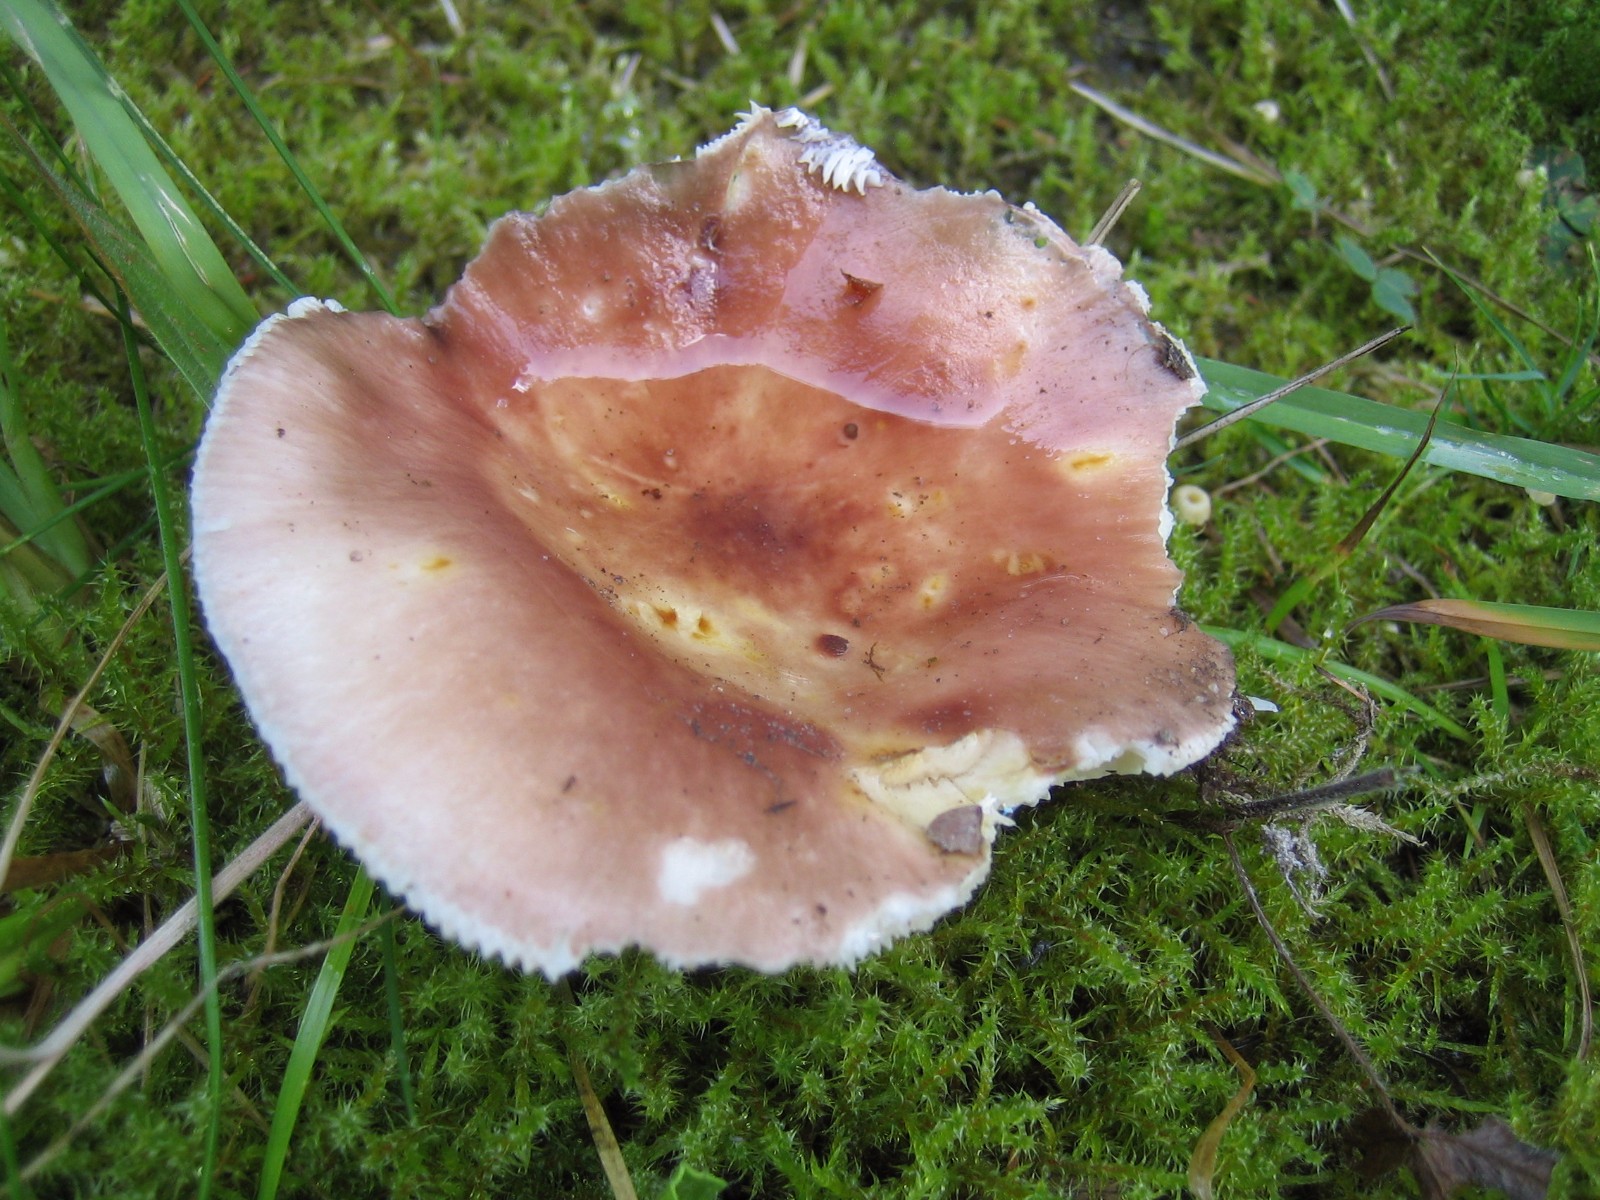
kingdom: Fungi
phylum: Basidiomycota
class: Agaricomycetes
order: Russulales
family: Russulaceae
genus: Russula
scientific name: Russula vesca
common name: spiselig skørhat
